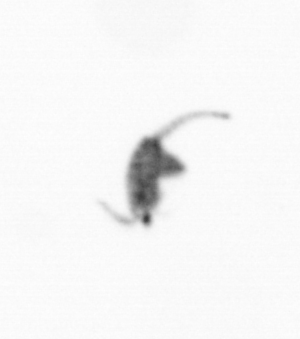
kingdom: Animalia
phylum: Arthropoda
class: Copepoda
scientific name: Copepoda
